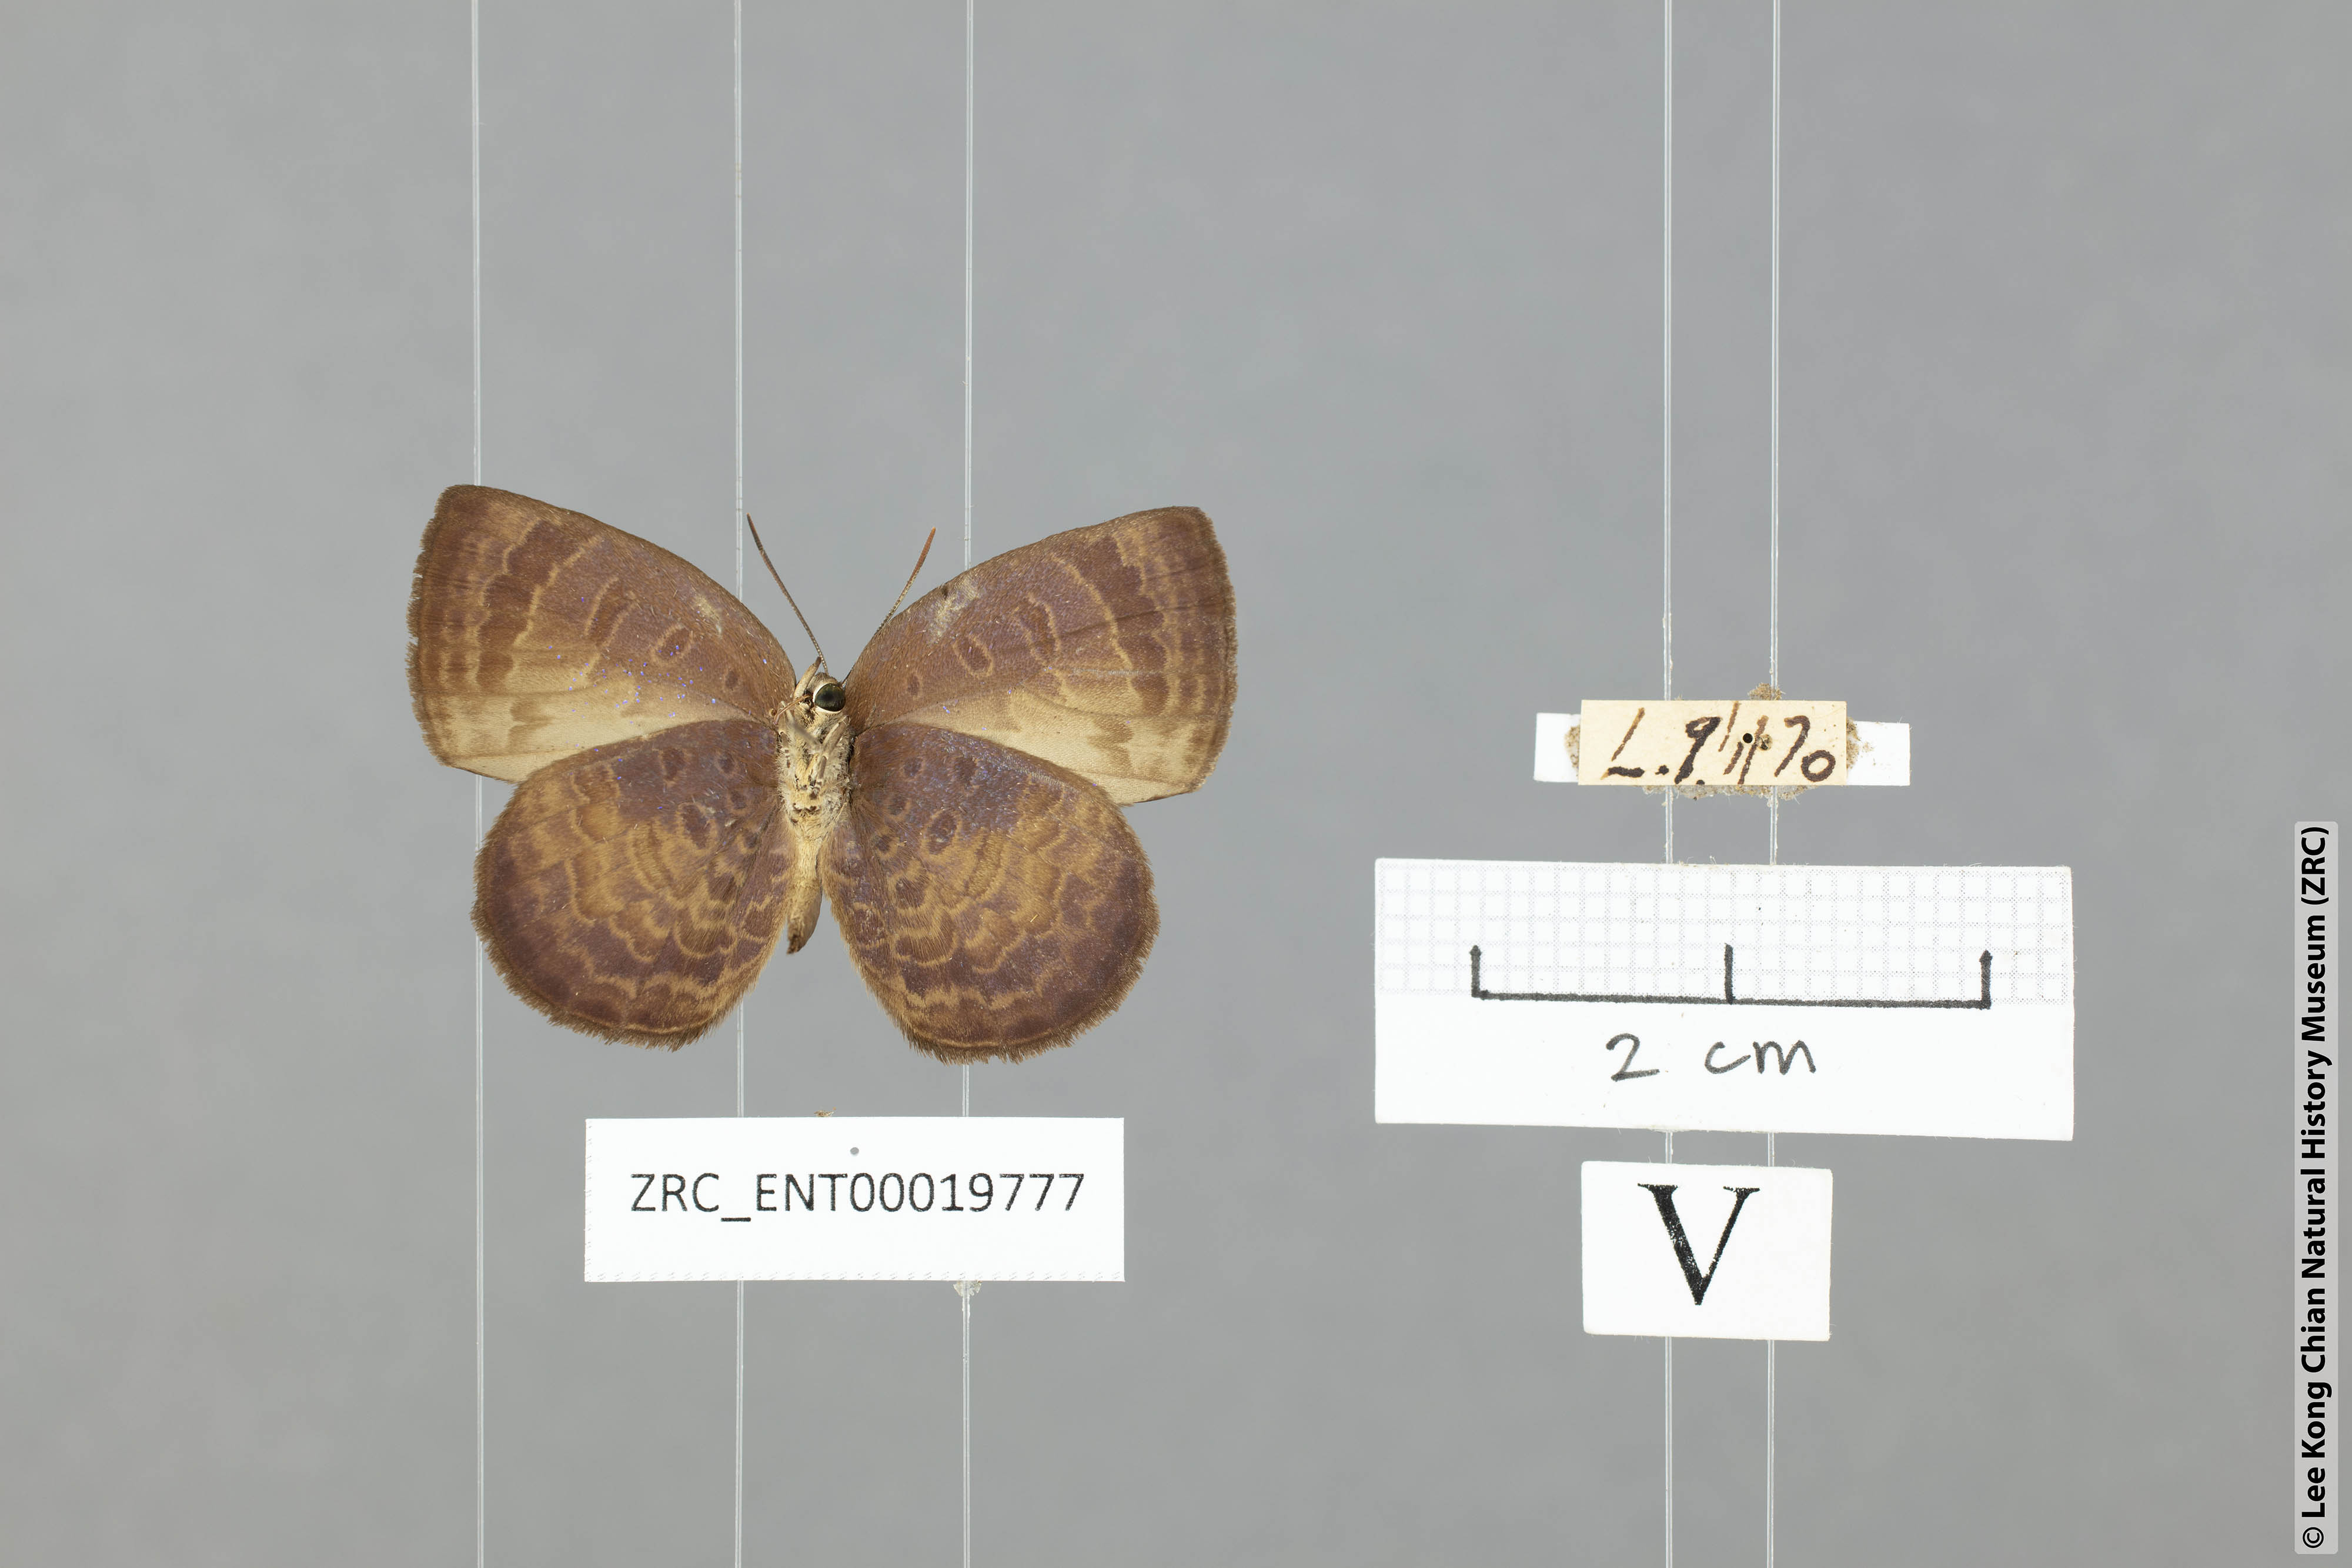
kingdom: Animalia
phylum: Arthropoda
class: Insecta
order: Lepidoptera
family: Lycaenidae
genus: Arhopala
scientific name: Arhopala perimuta
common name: Yellowdisc oakblue
